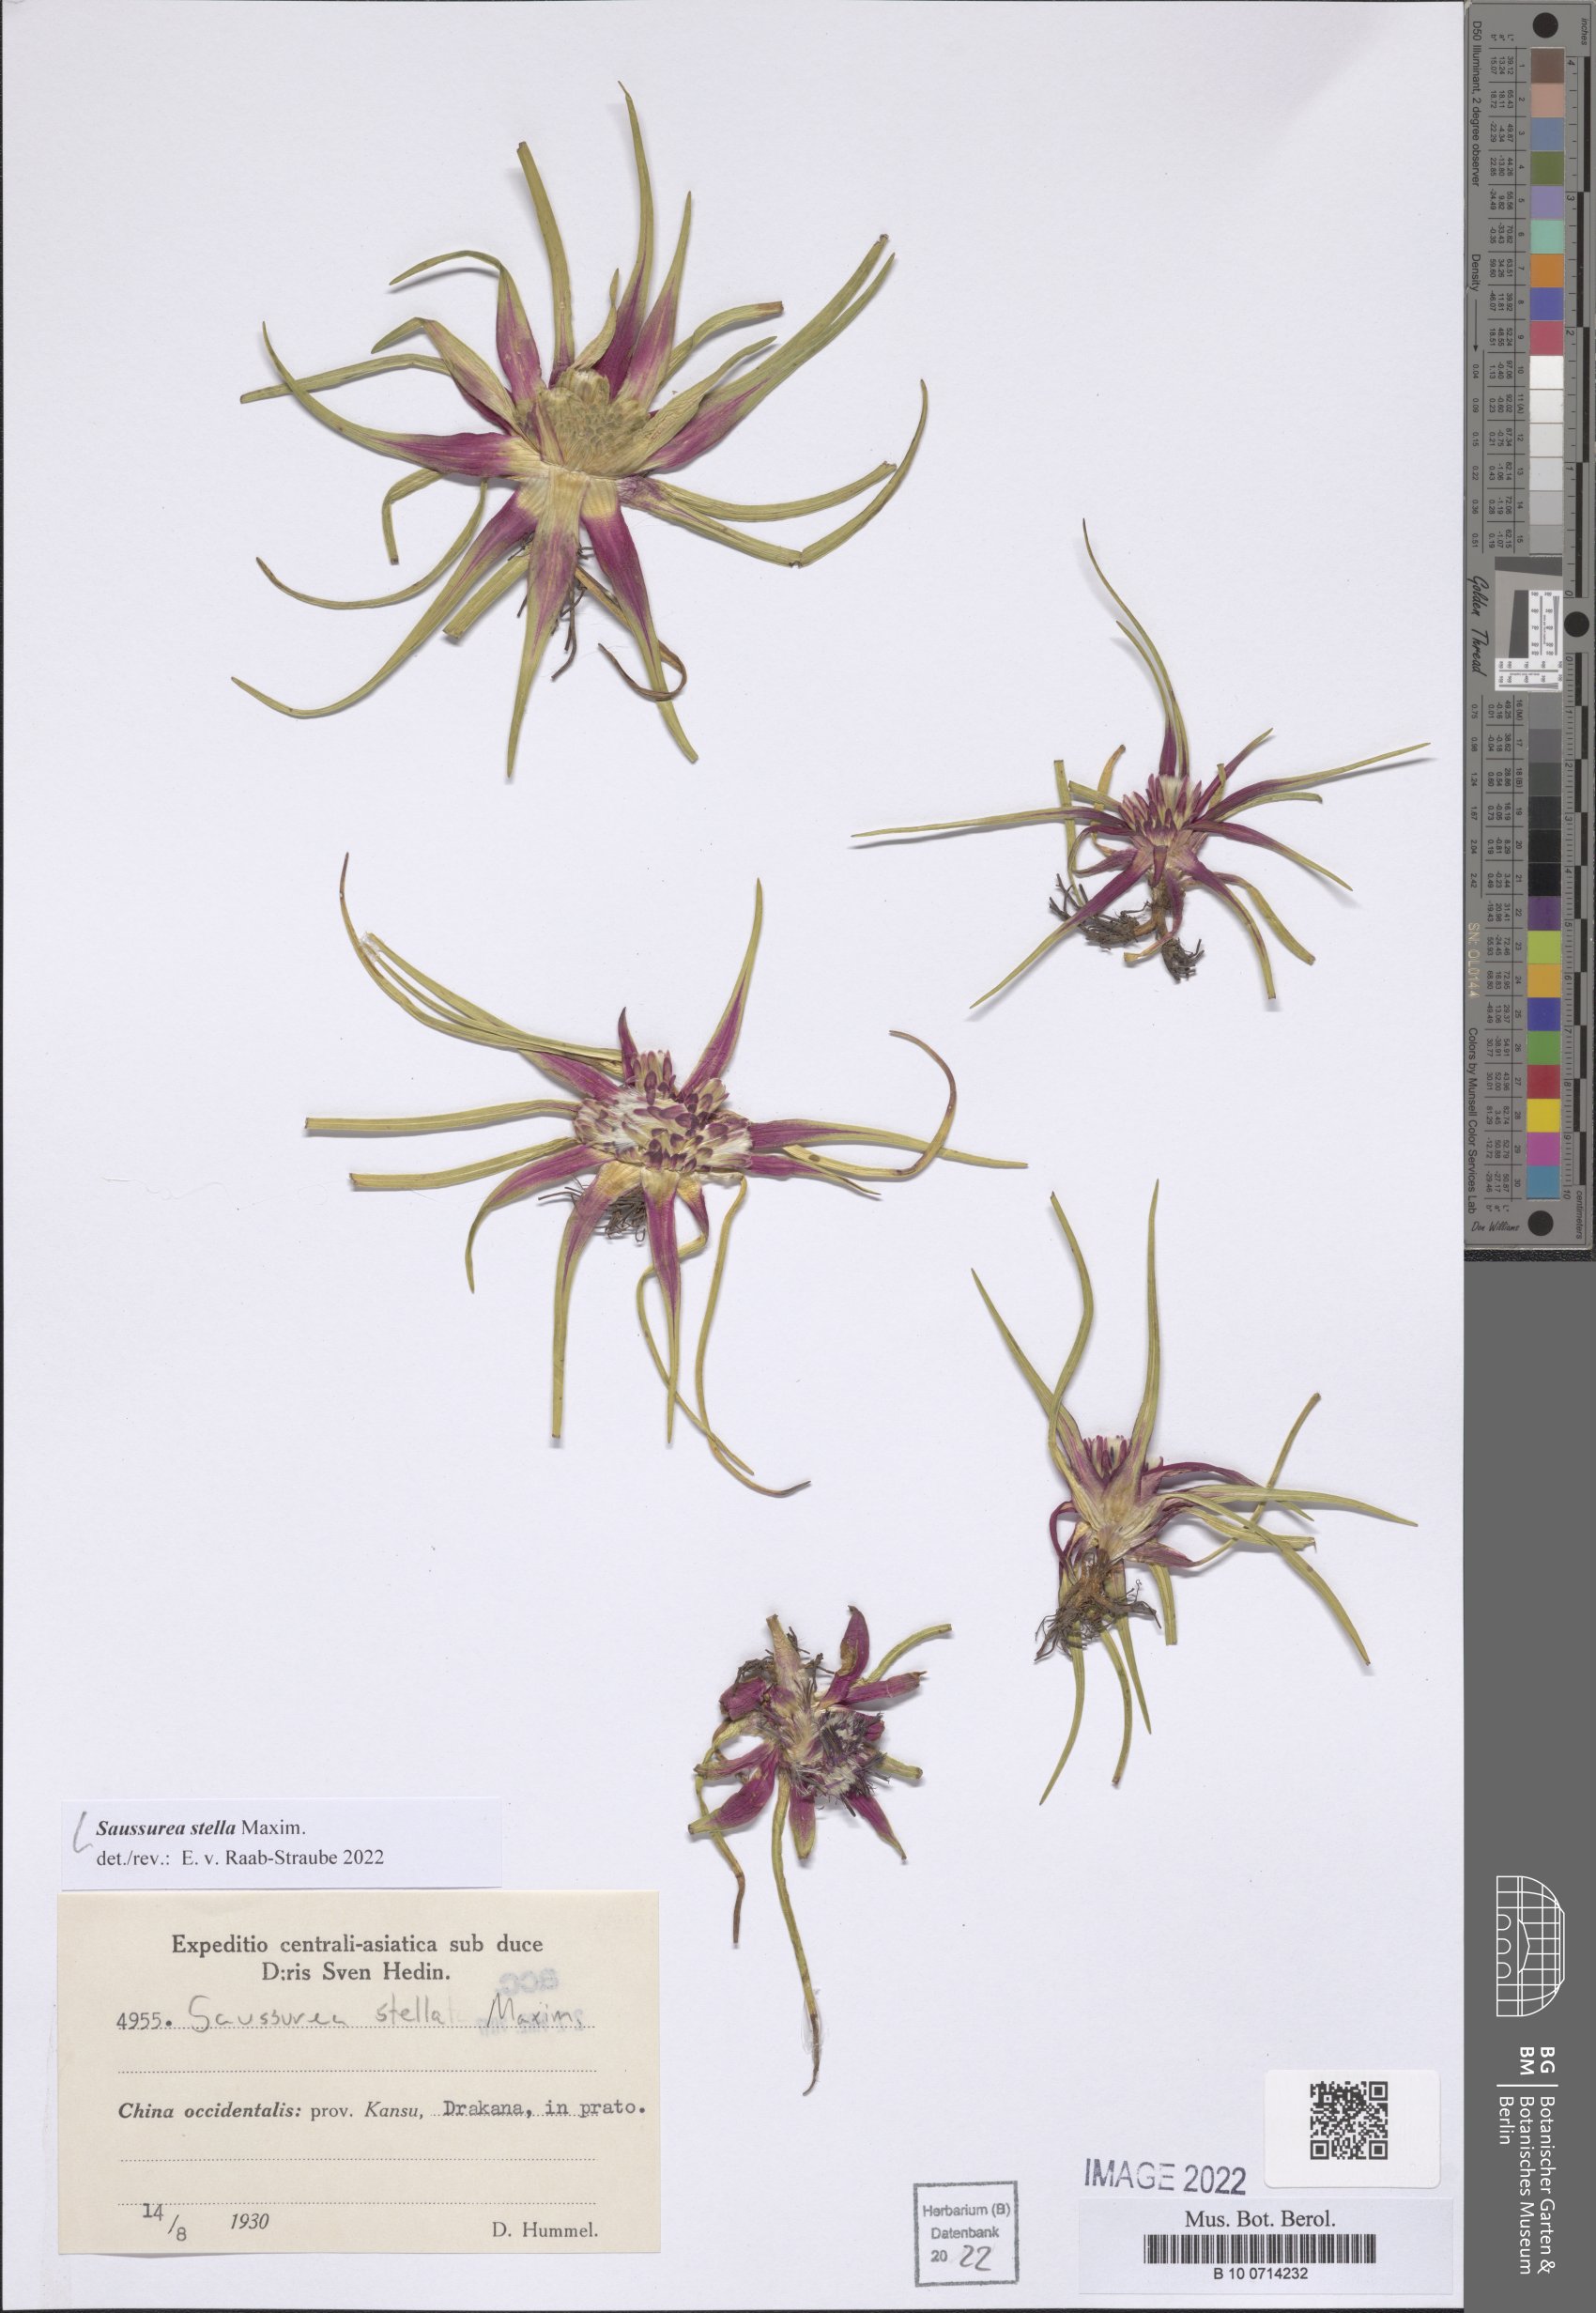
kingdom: Plantae
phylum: Tracheophyta
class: Magnoliopsida
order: Asterales
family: Asteraceae
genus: Saussurea
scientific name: Saussurea stella
